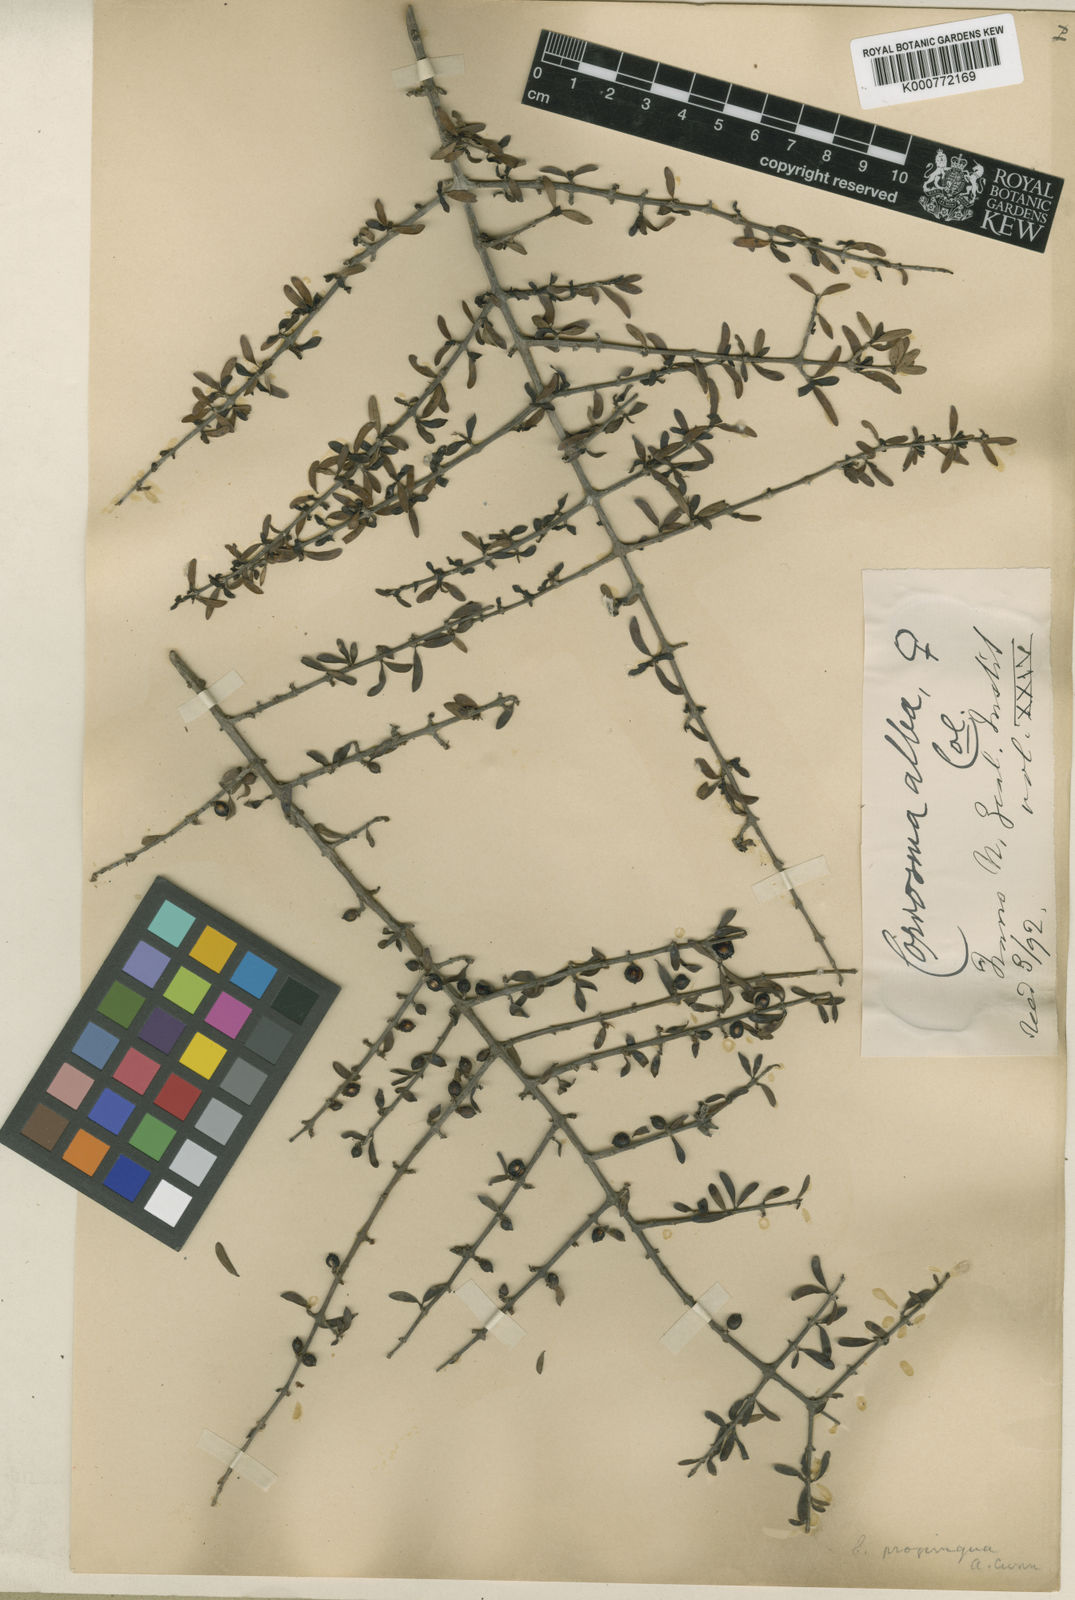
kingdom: Plantae
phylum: Tracheophyta
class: Magnoliopsida
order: Gentianales
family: Rubiaceae
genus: Coprosma
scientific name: Coprosma propinqua
